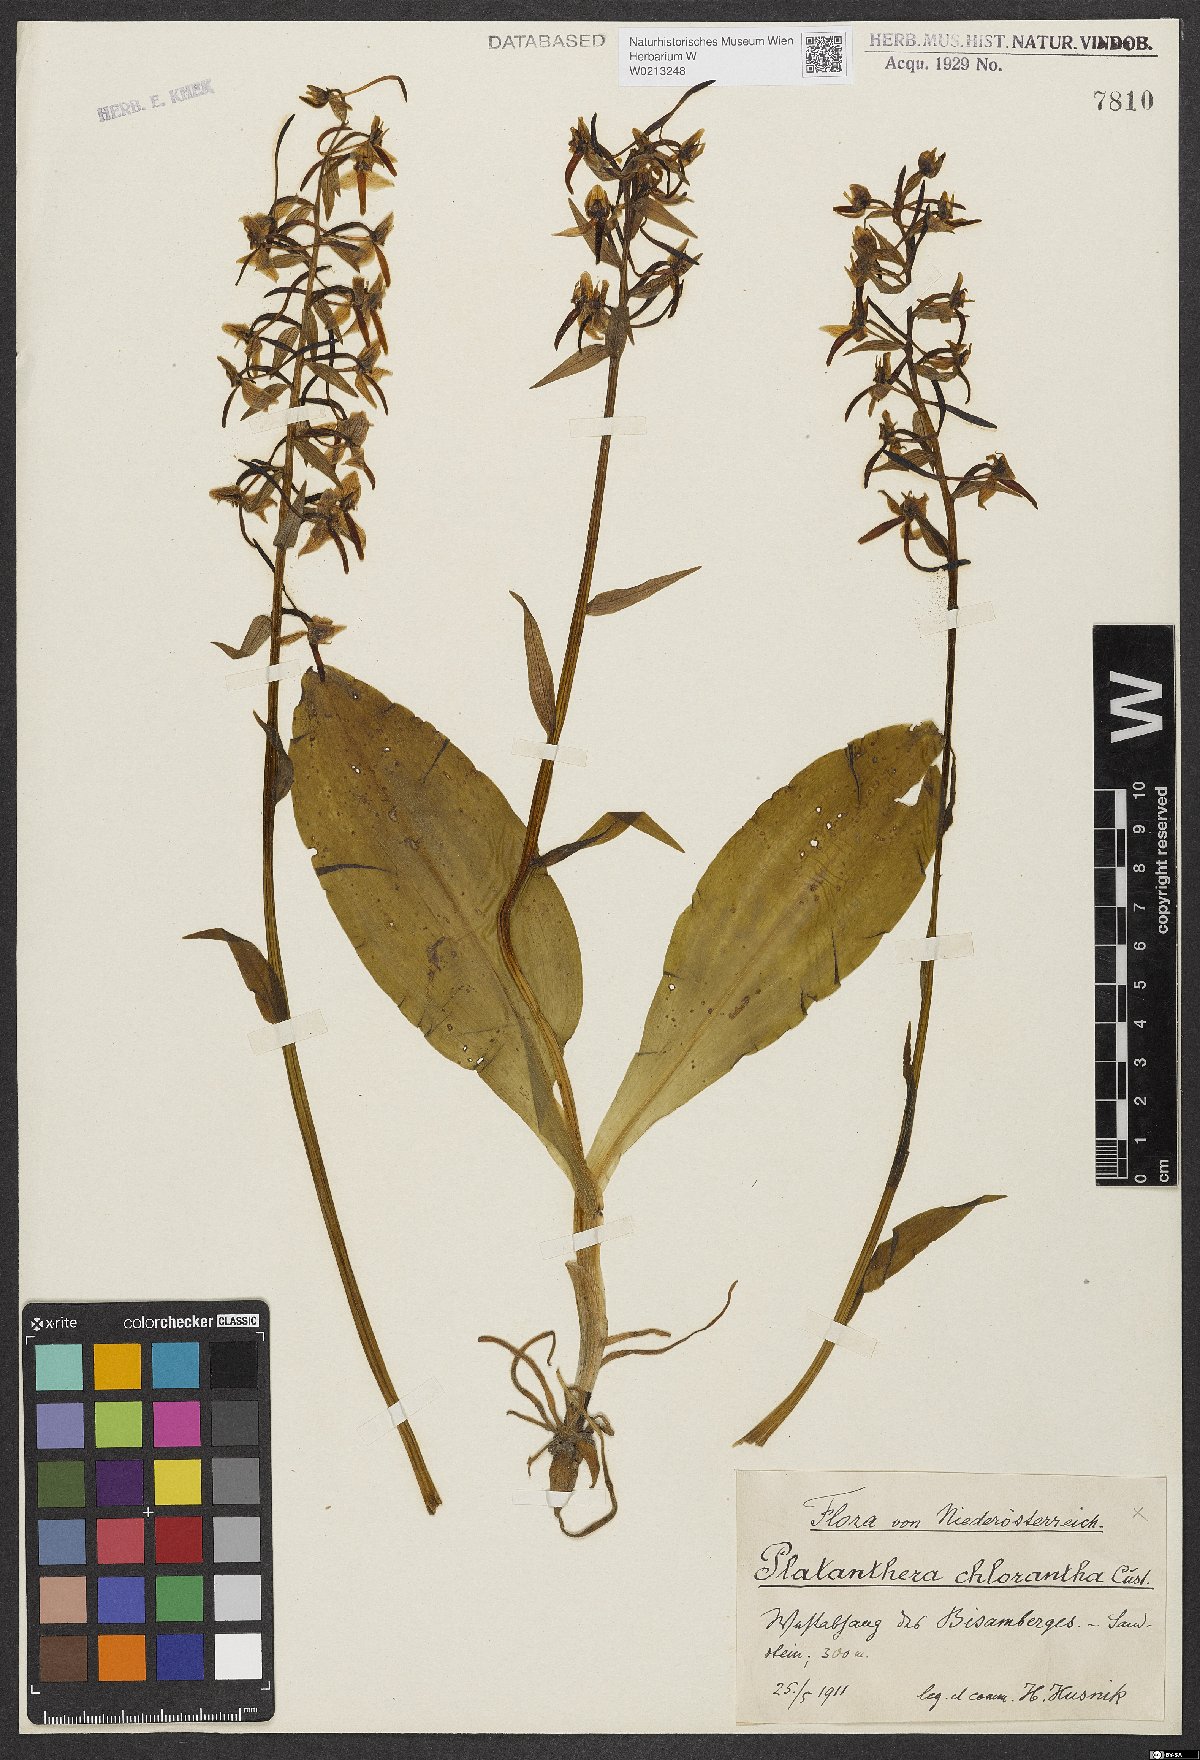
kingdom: Plantae
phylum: Tracheophyta
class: Liliopsida
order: Asparagales
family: Orchidaceae
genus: Platanthera
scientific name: Platanthera chlorantha
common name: Greater butterfly-orchid
